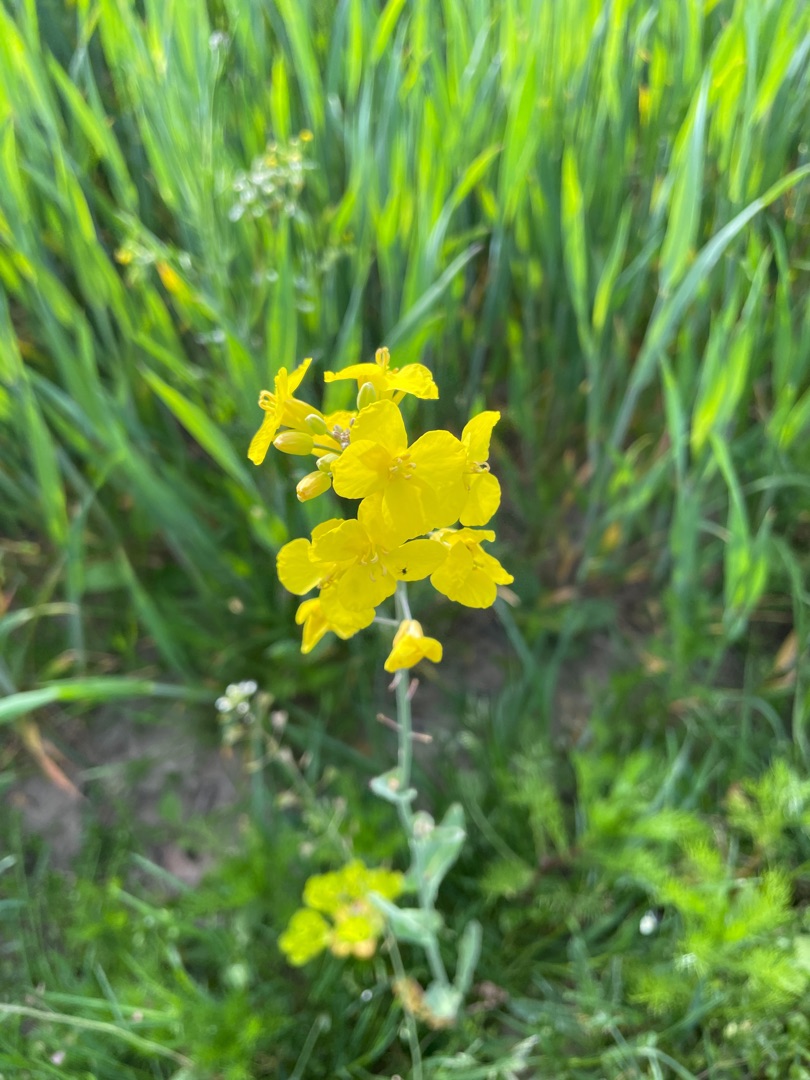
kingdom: Plantae
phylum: Tracheophyta
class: Magnoliopsida
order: Brassicales
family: Brassicaceae
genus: Brassica
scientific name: Brassica rapa
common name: Ager-kål
